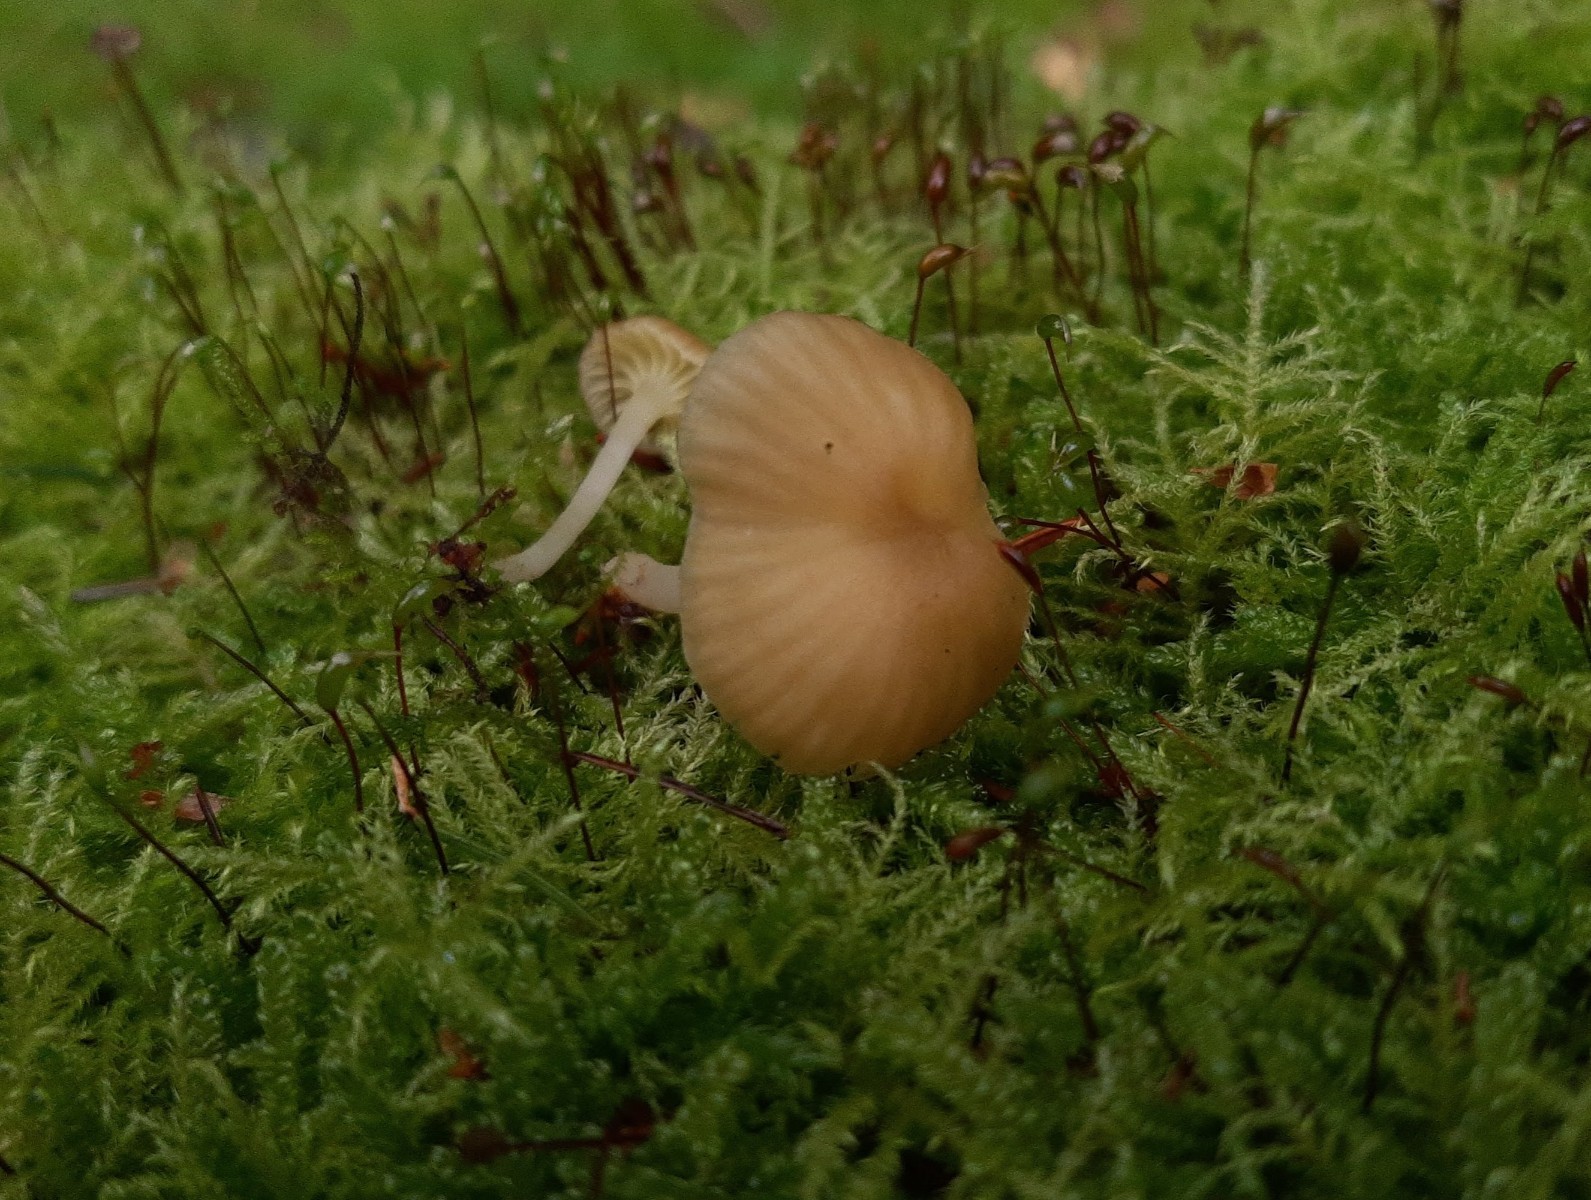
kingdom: Fungi
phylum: Basidiomycota
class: Agaricomycetes
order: Agaricales
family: Hygrophoraceae
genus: Chrysomphalina
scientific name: Chrysomphalina grossula
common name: stød-gyldenblad
